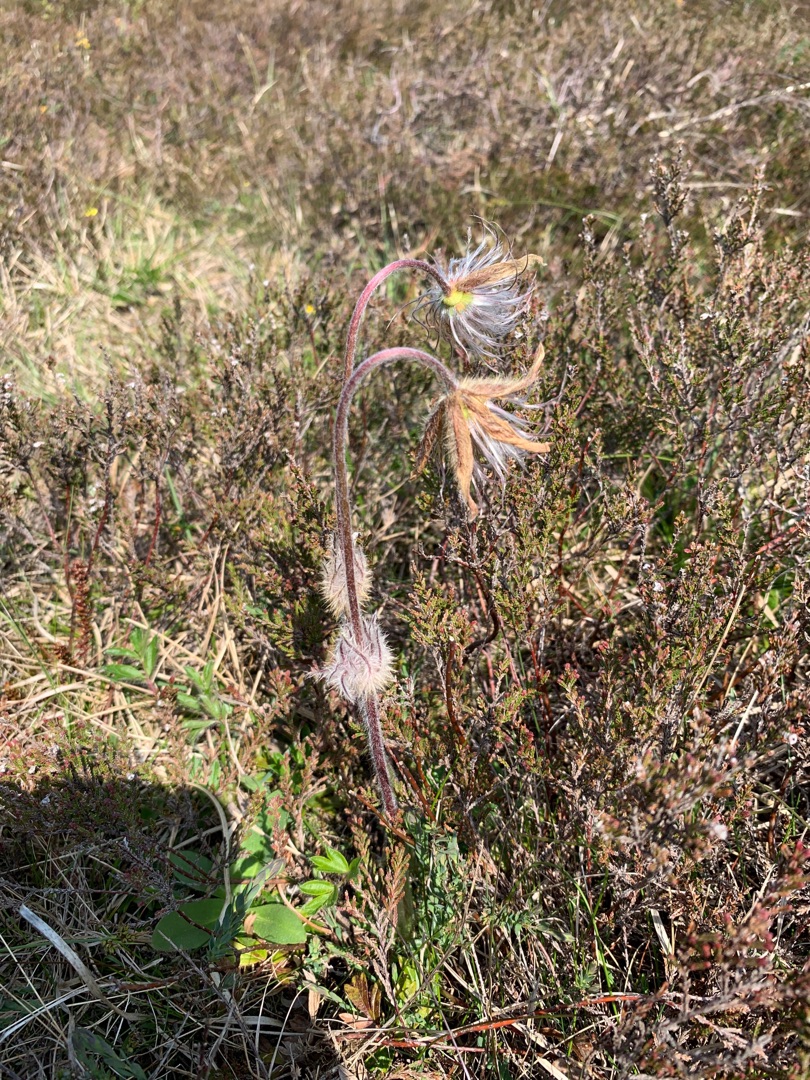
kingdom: Plantae
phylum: Tracheophyta
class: Magnoliopsida
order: Ranunculales
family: Ranunculaceae
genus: Pulsatilla
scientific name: Pulsatilla vernalis
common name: Vår-kobjælde
